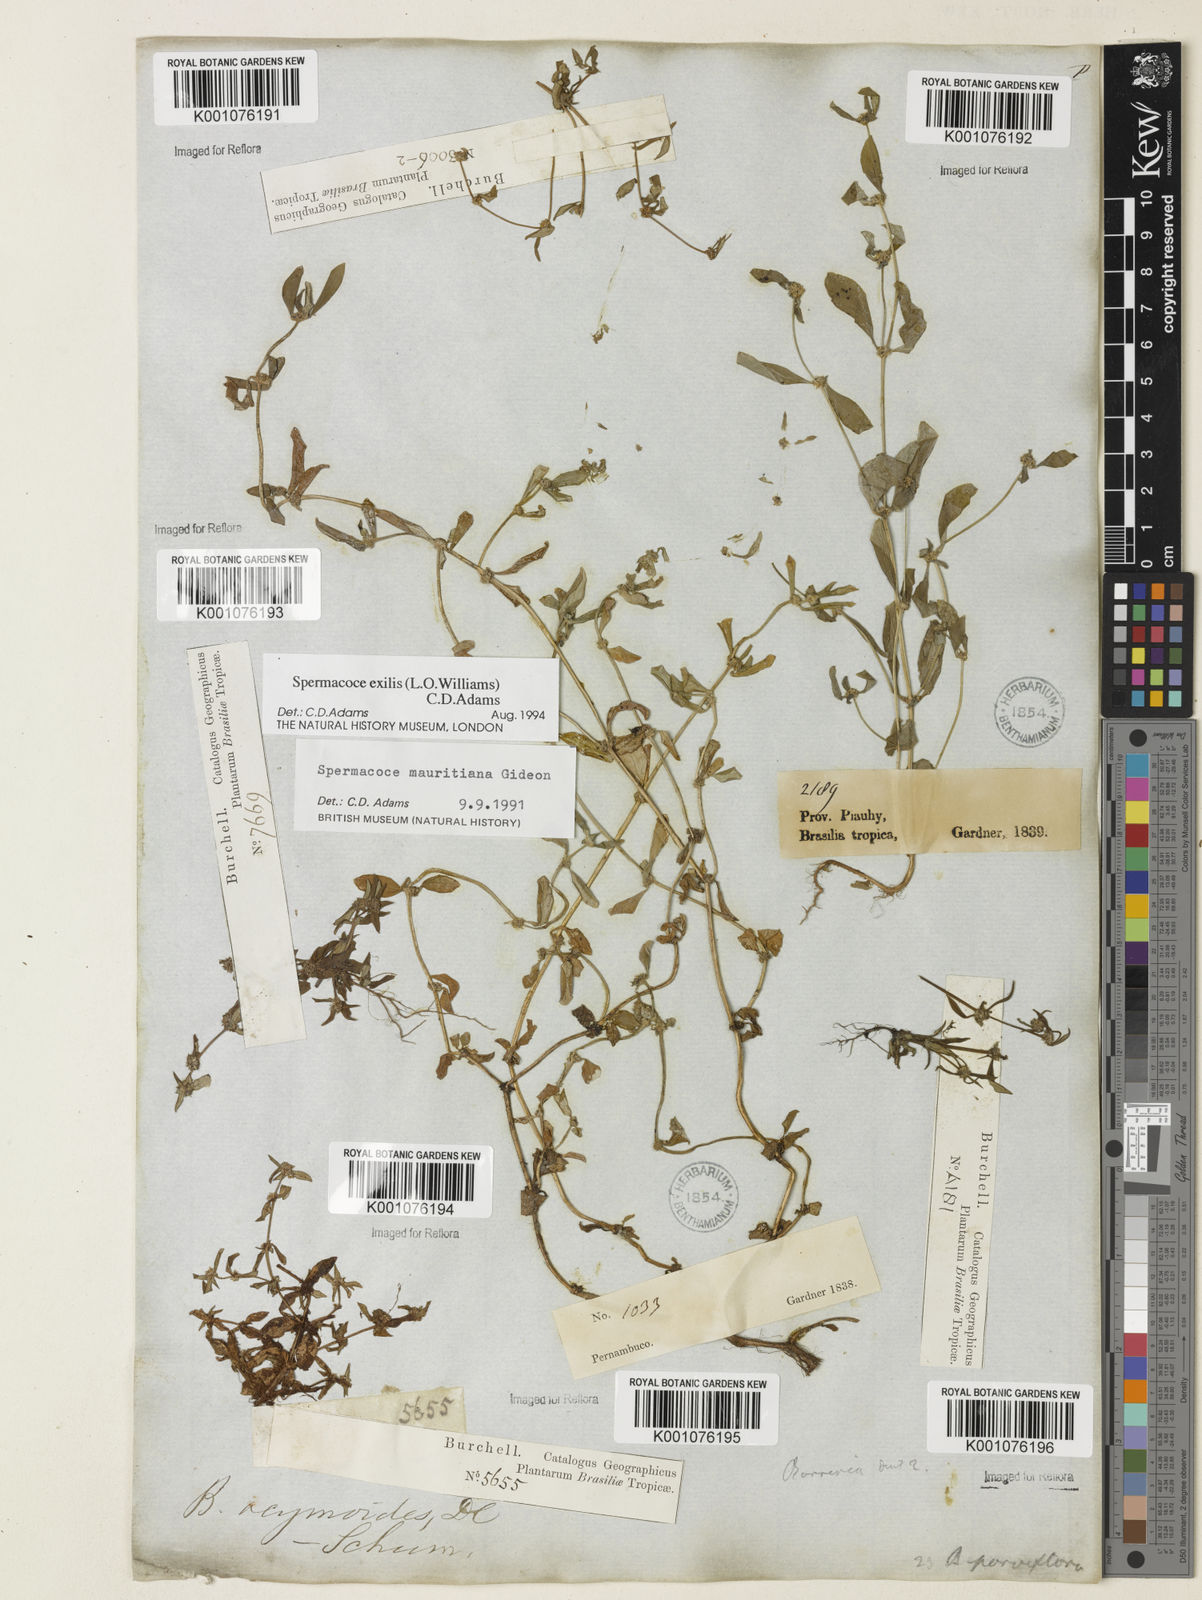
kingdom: Plantae
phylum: Tracheophyta
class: Magnoliopsida
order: Gentianales
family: Rubiaceae
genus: Spermacoce
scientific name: Spermacoce exilis
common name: Pacific false buttonweed
